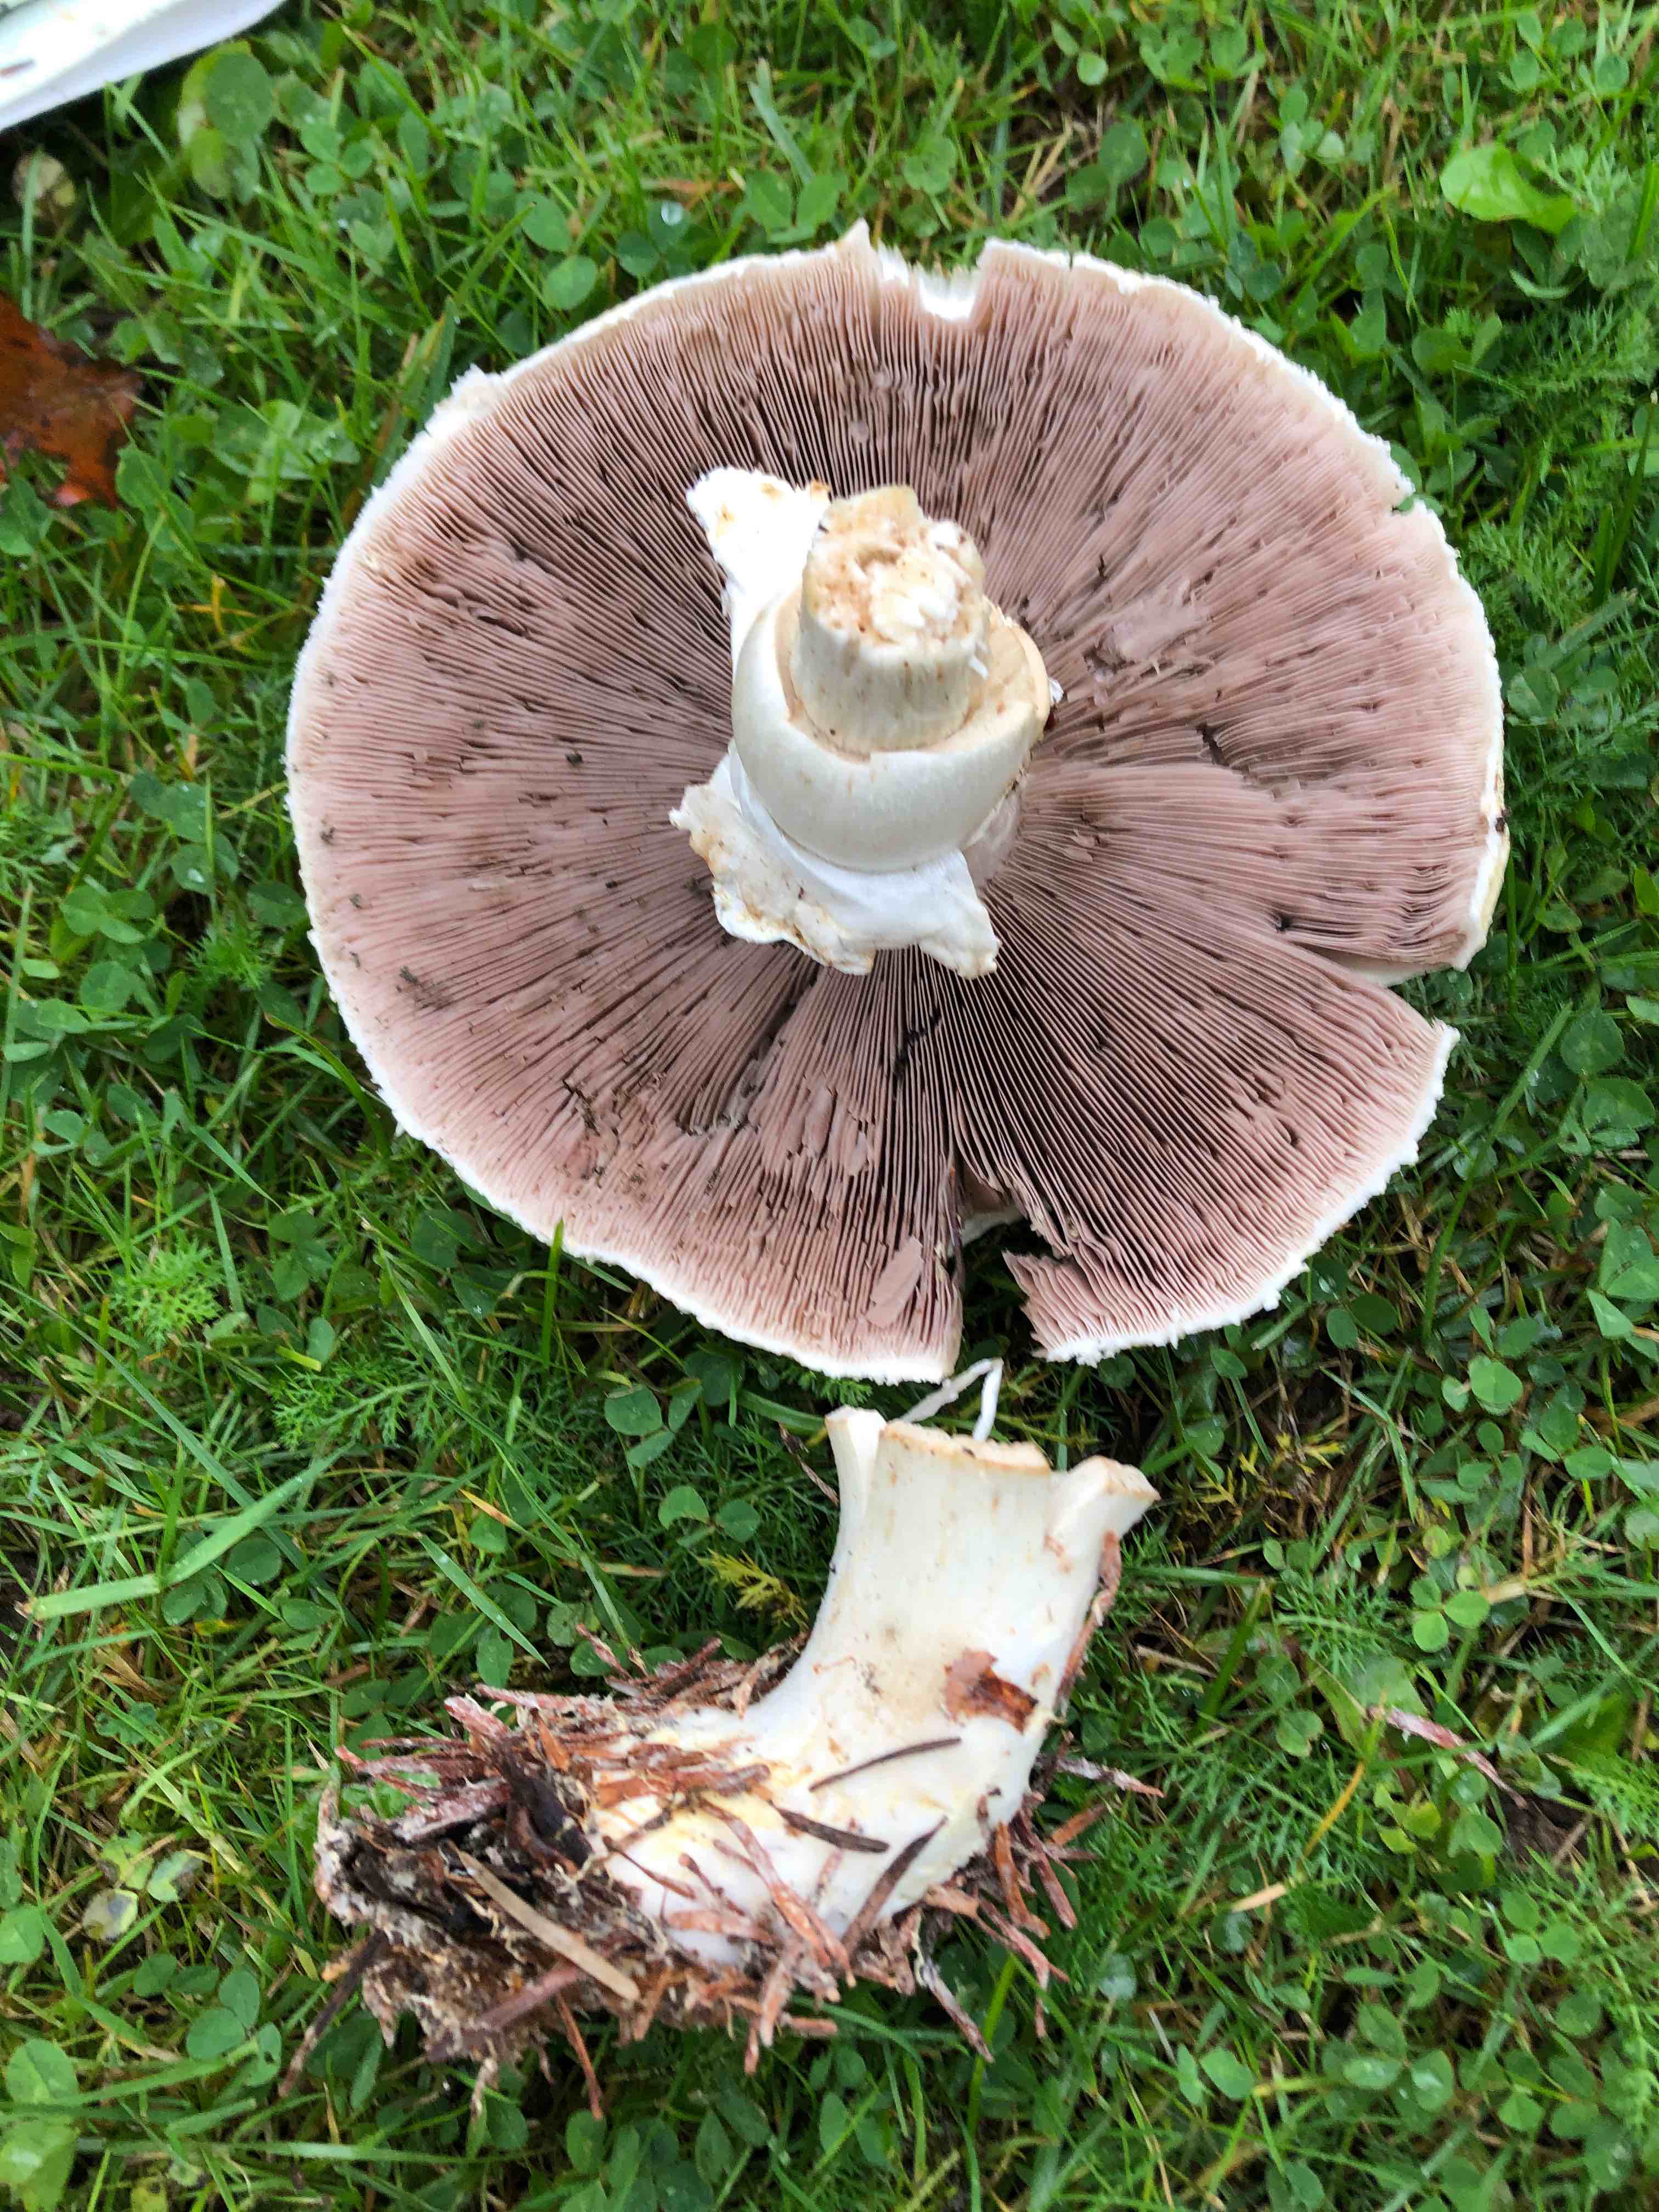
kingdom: Fungi
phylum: Basidiomycota
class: Agaricomycetes
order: Agaricales
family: Agaricaceae
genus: Agaricus
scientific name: Agaricus
